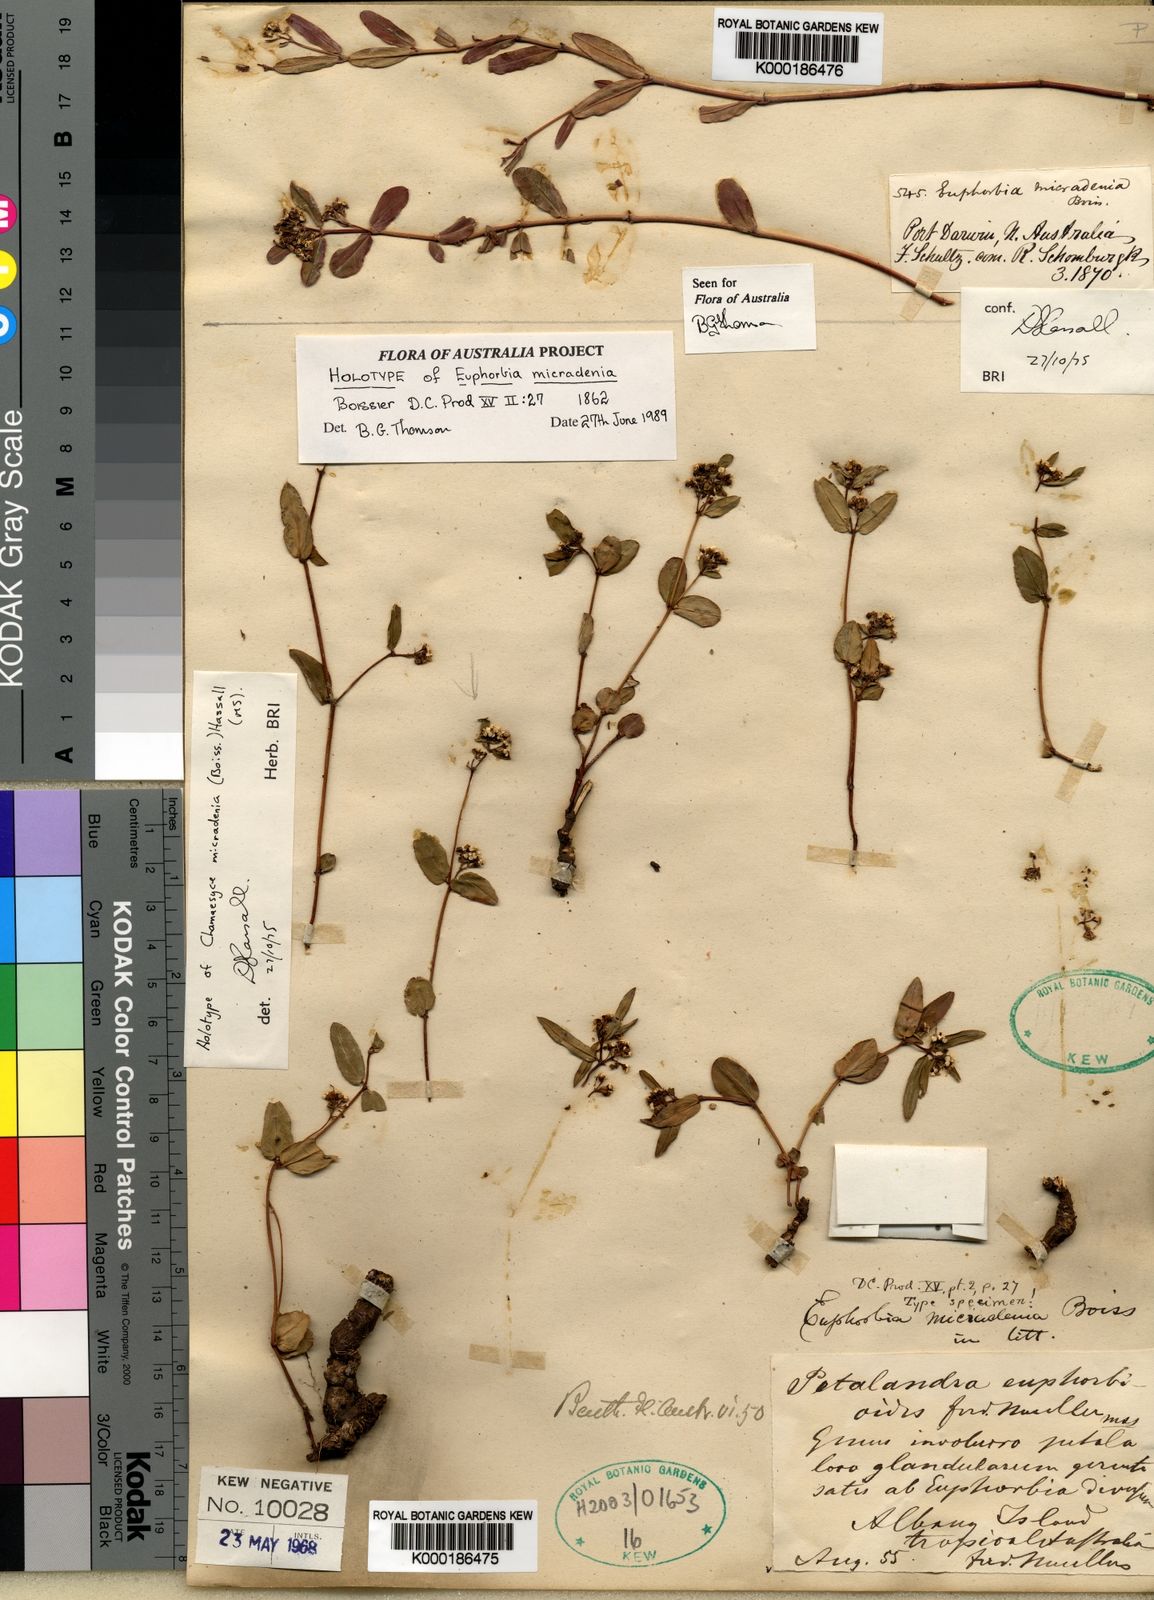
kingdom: Plantae
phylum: Tracheophyta
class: Magnoliopsida
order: Malpighiales
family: Euphorbiaceae
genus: Euphorbia
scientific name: Euphorbia bifida
